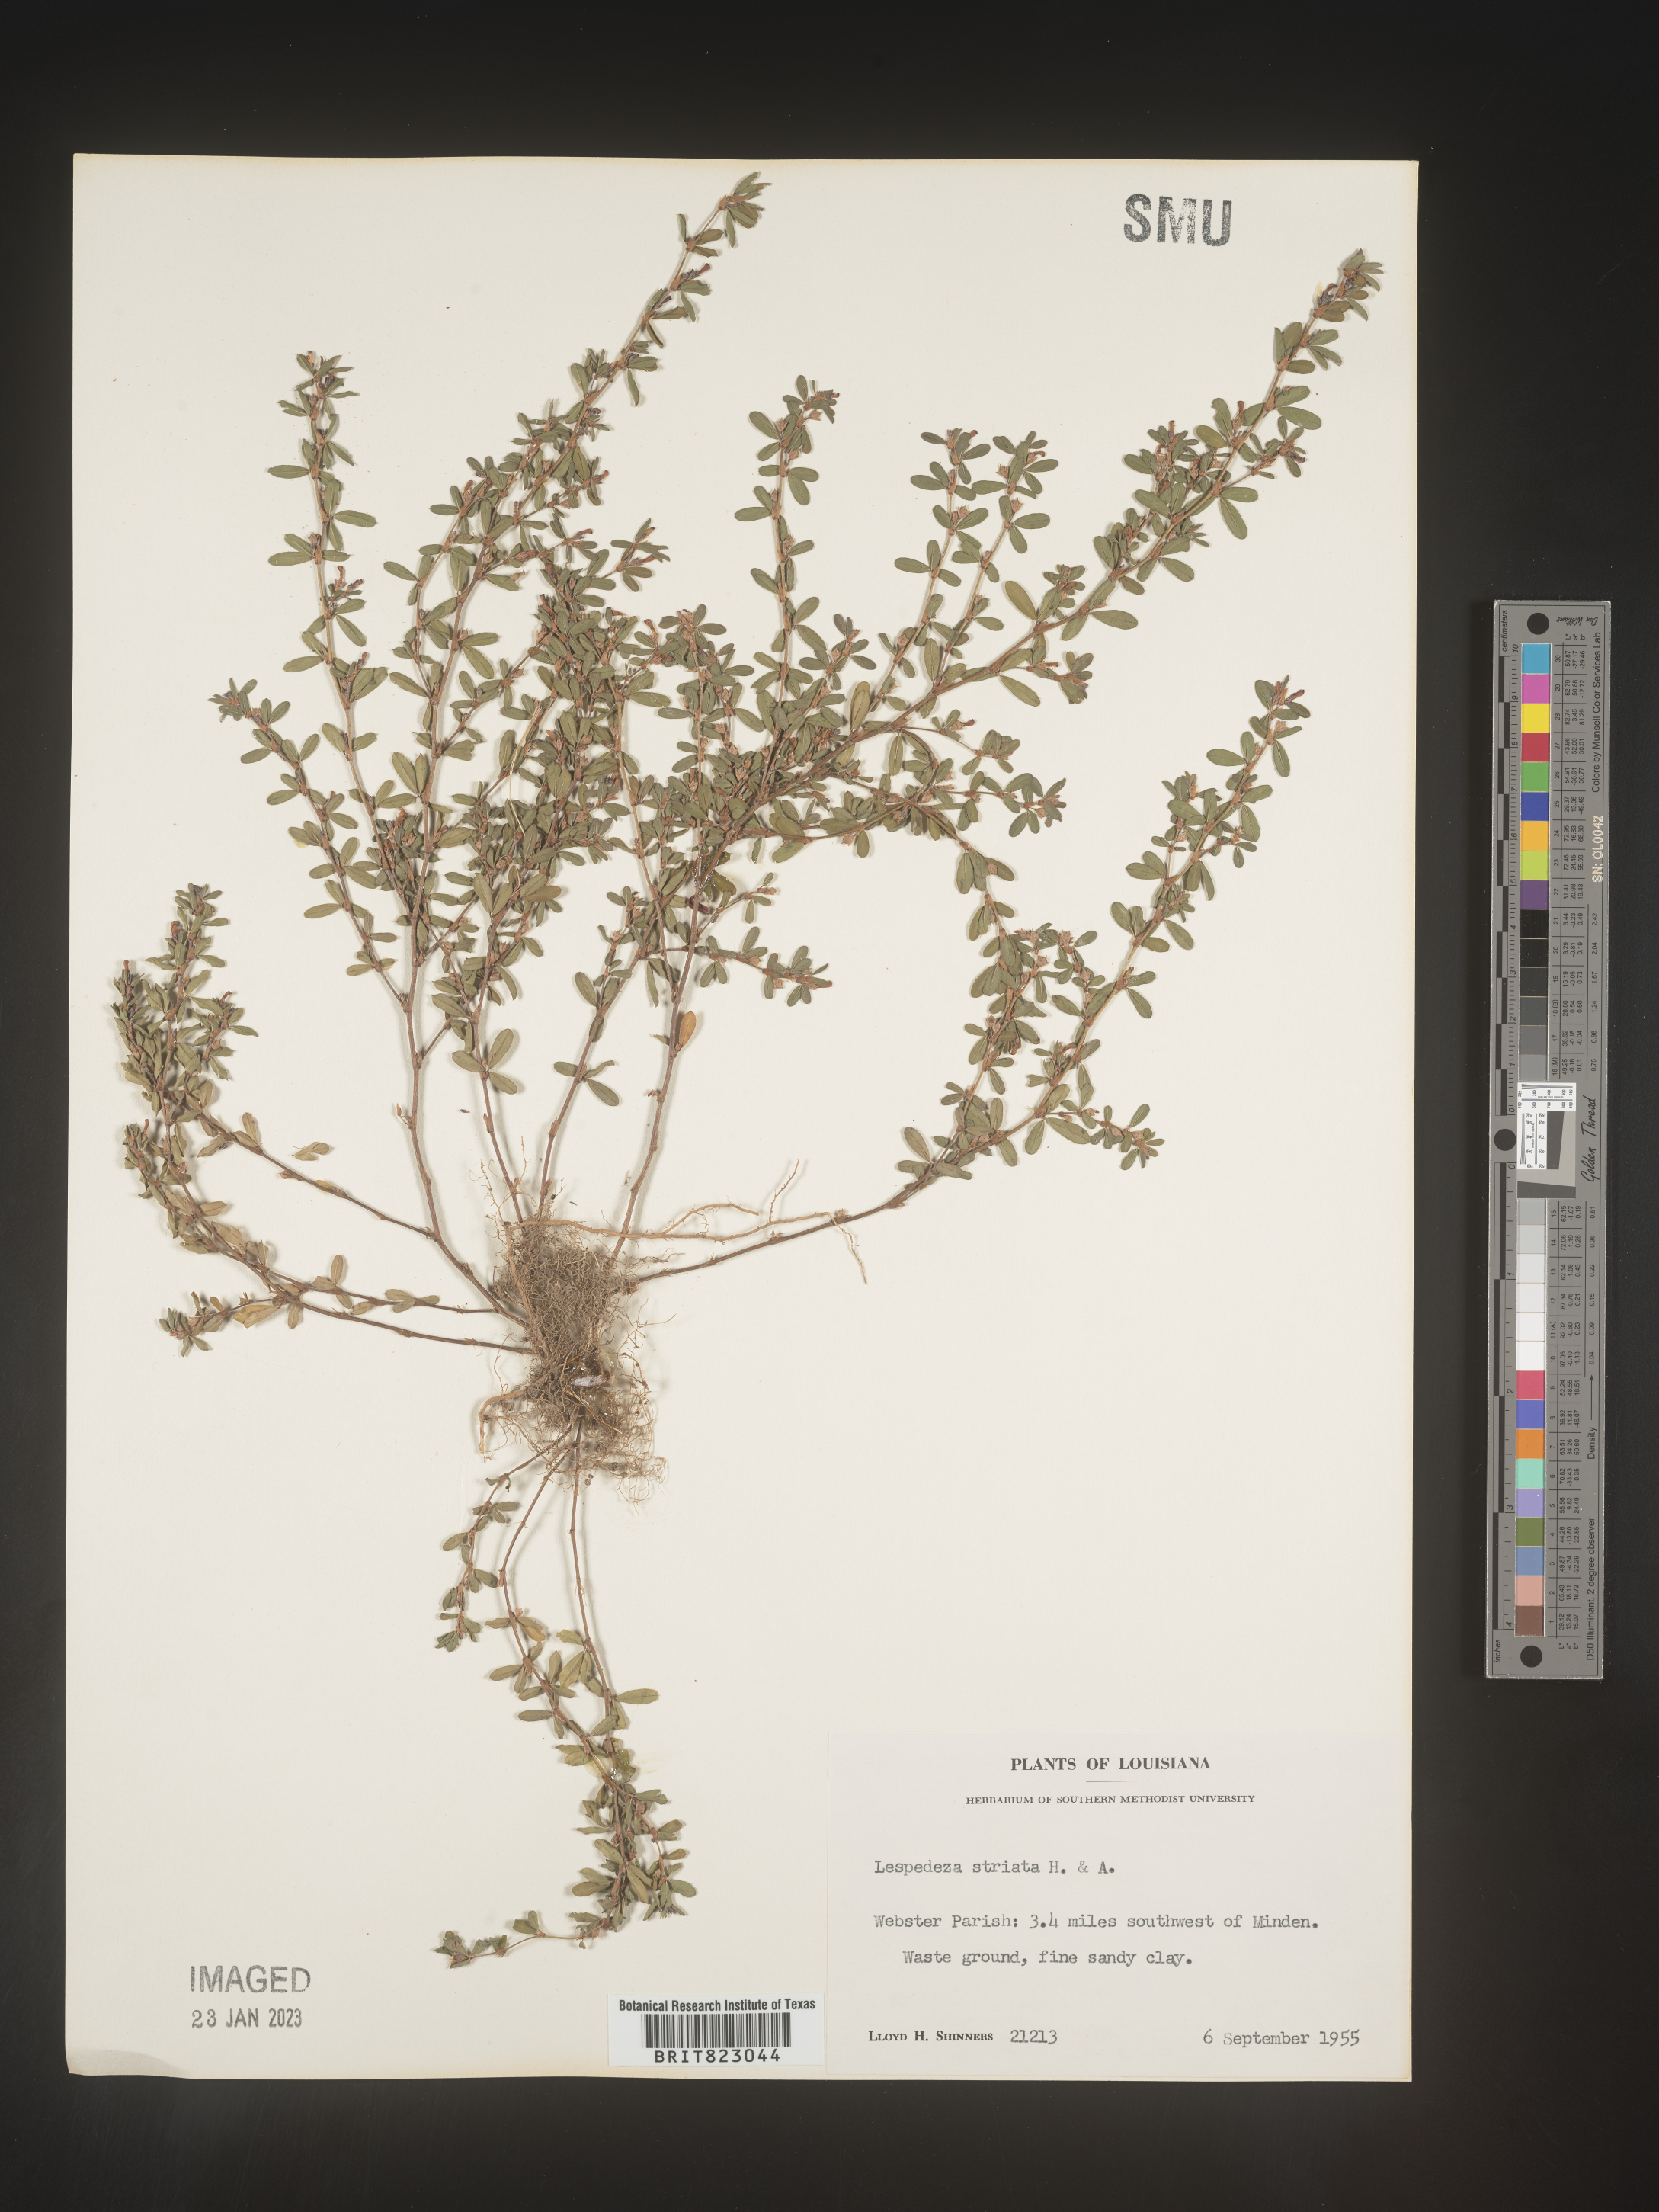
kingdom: Plantae
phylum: Tracheophyta
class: Magnoliopsida
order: Fabales
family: Fabaceae
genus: Kummerowia
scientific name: Kummerowia striata
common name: Japanese clover
